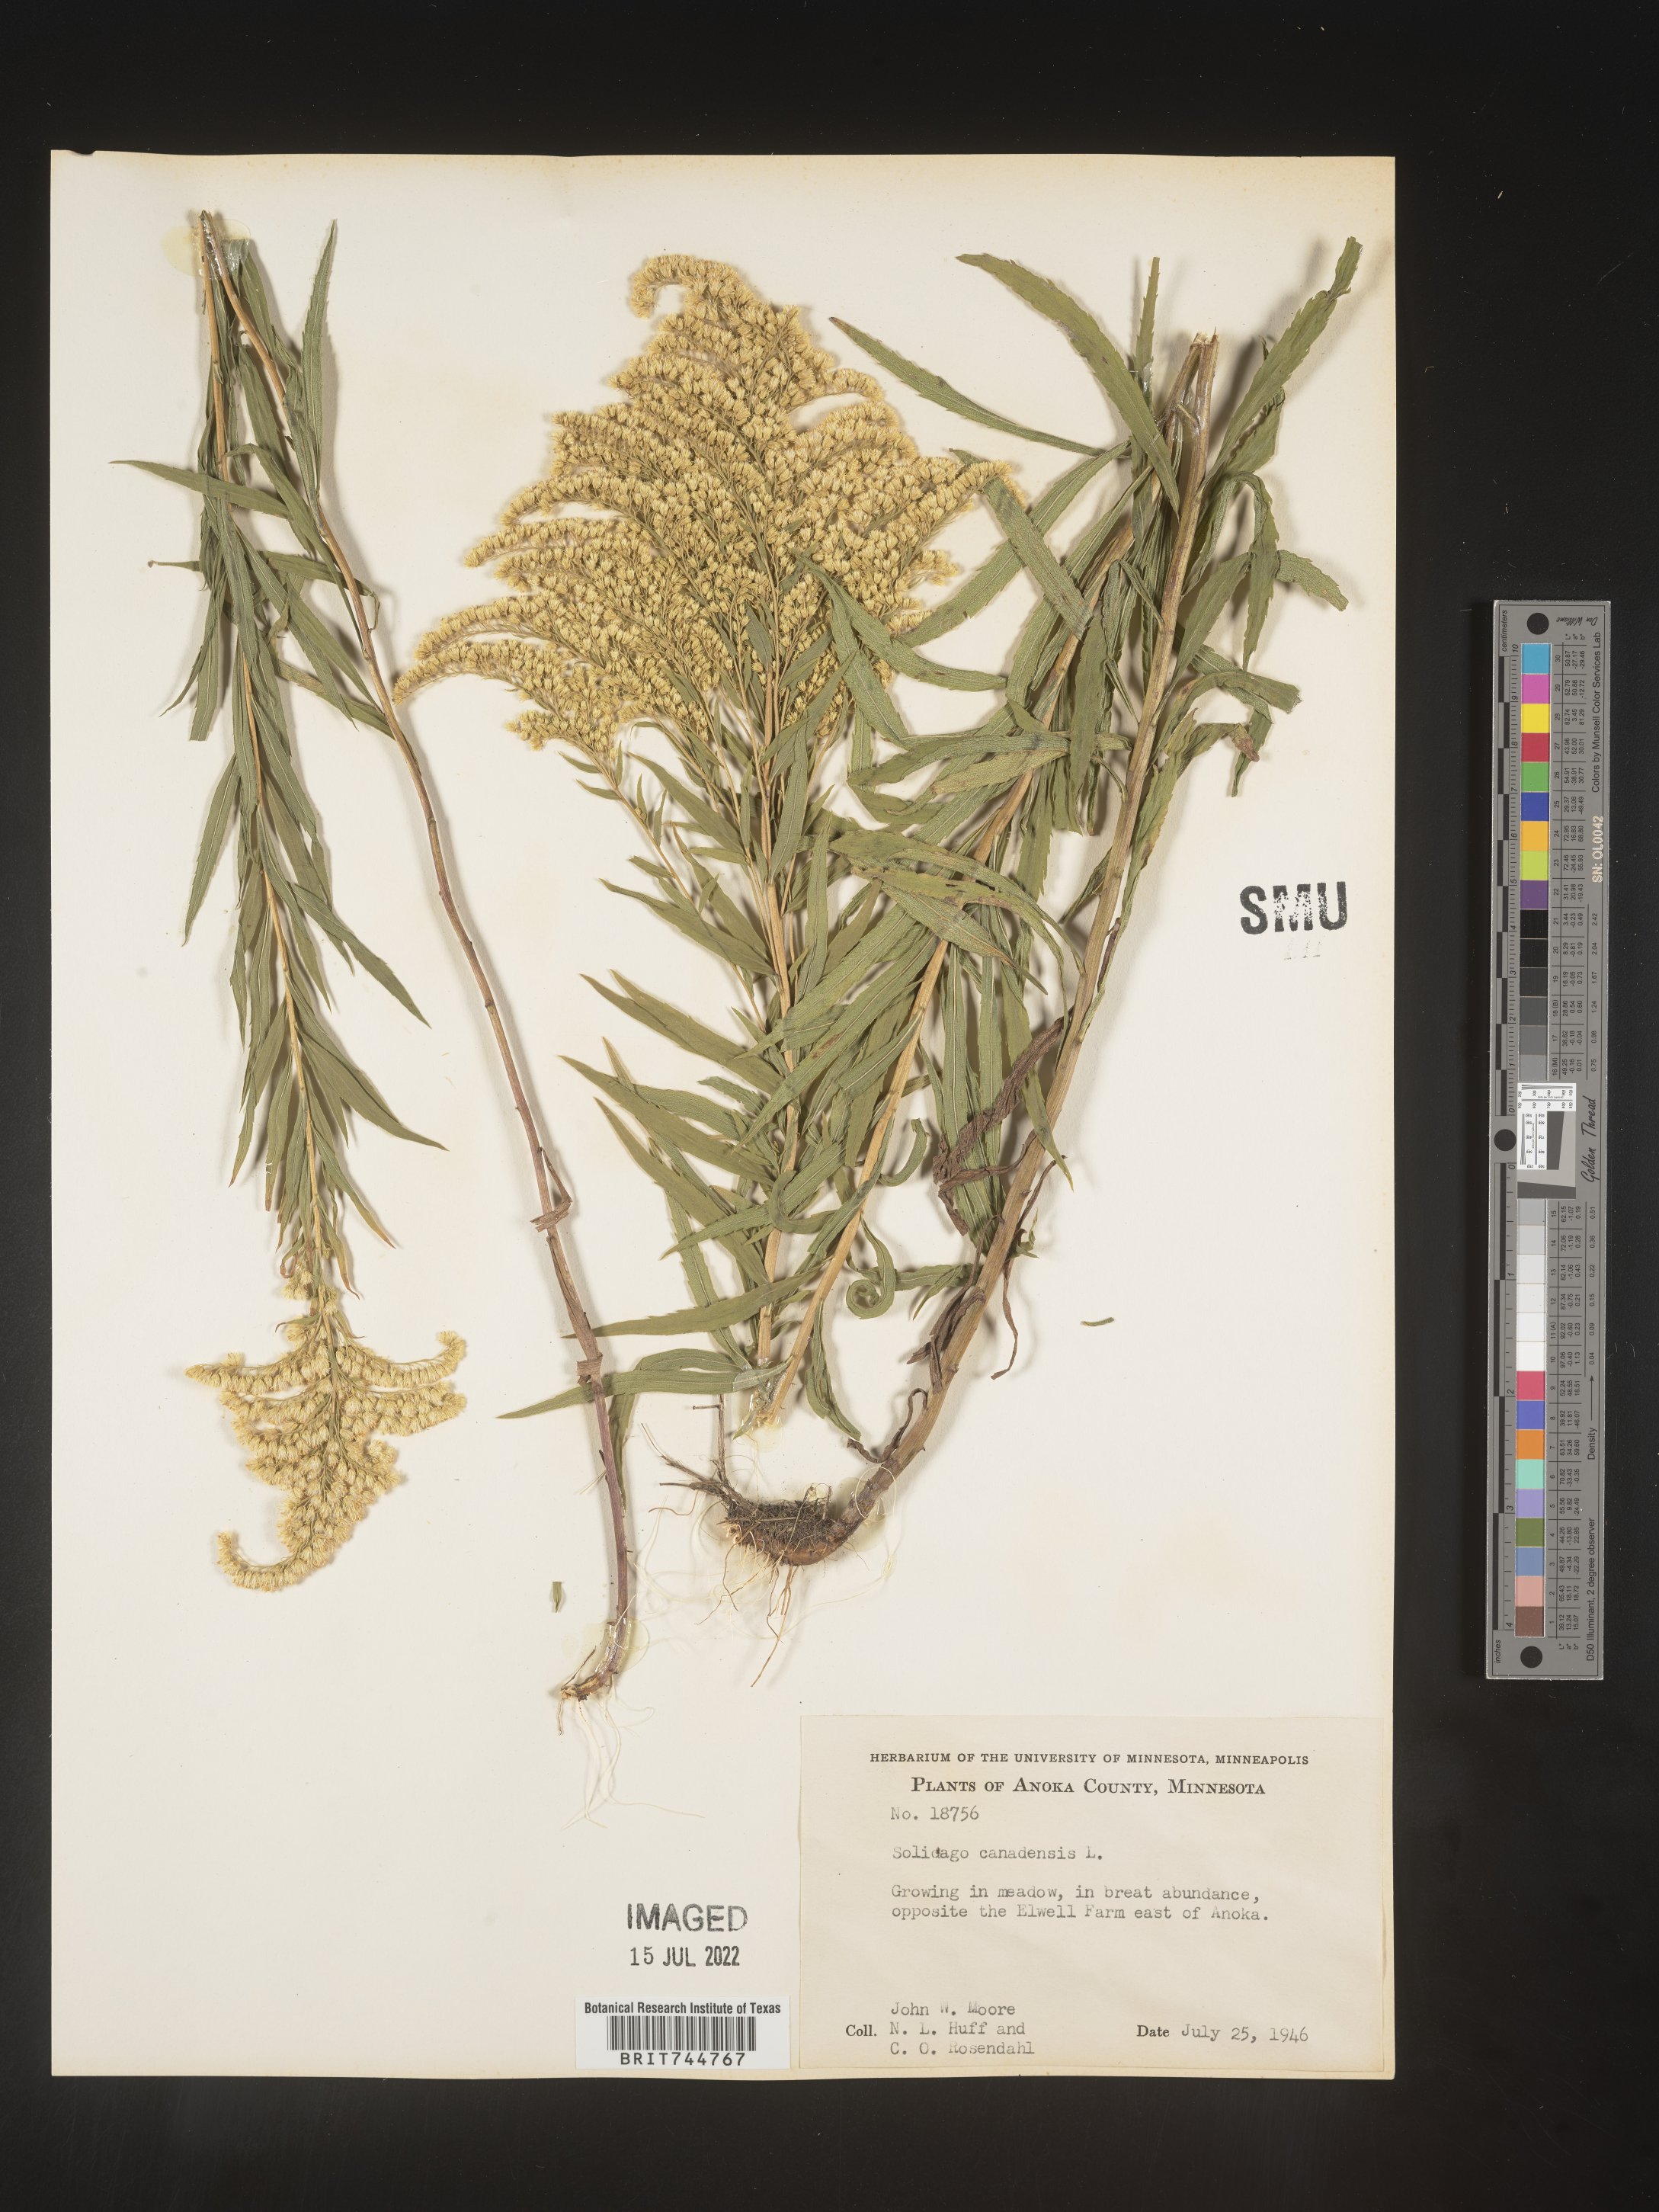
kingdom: Plantae
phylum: Tracheophyta
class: Magnoliopsida
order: Asterales
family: Asteraceae
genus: Solidago
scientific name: Solidago canadensis
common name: Canada goldenrod
